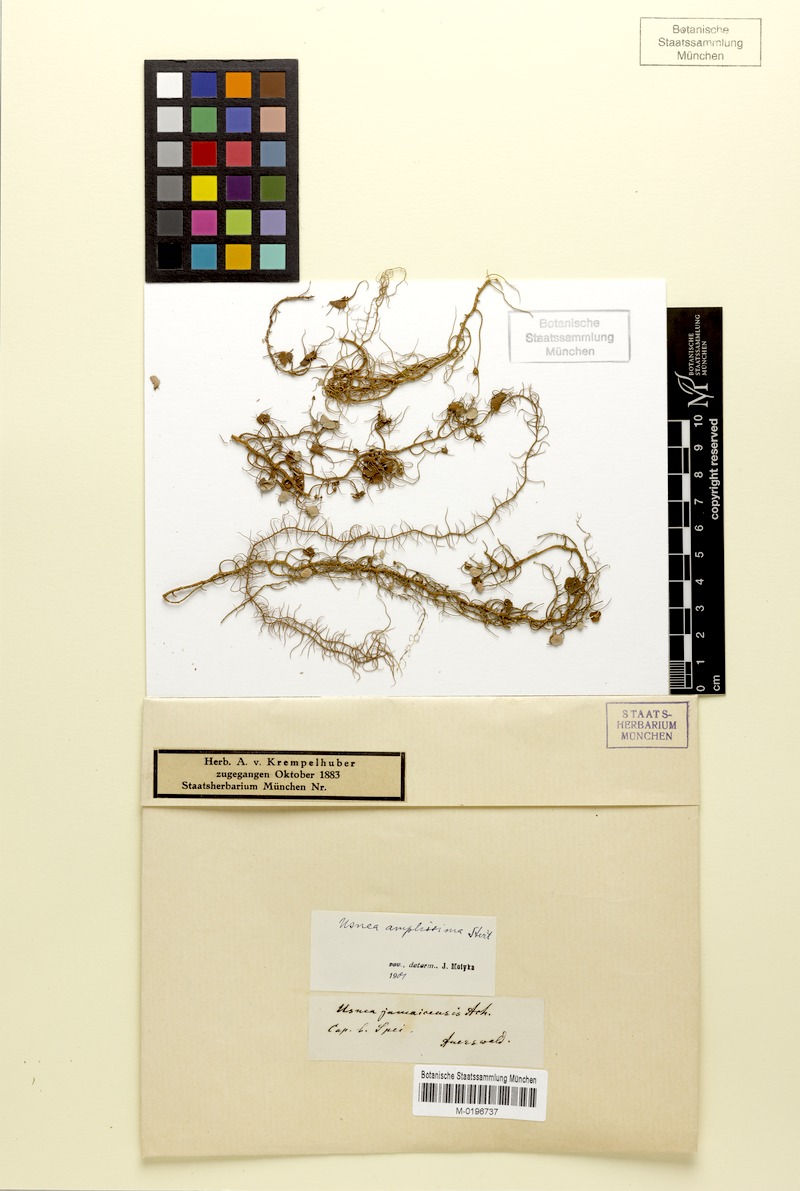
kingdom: Fungi
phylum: Ascomycota
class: Lecanoromycetes
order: Lecanorales
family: Parmeliaceae
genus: Usnea
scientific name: Usnea amplissima
